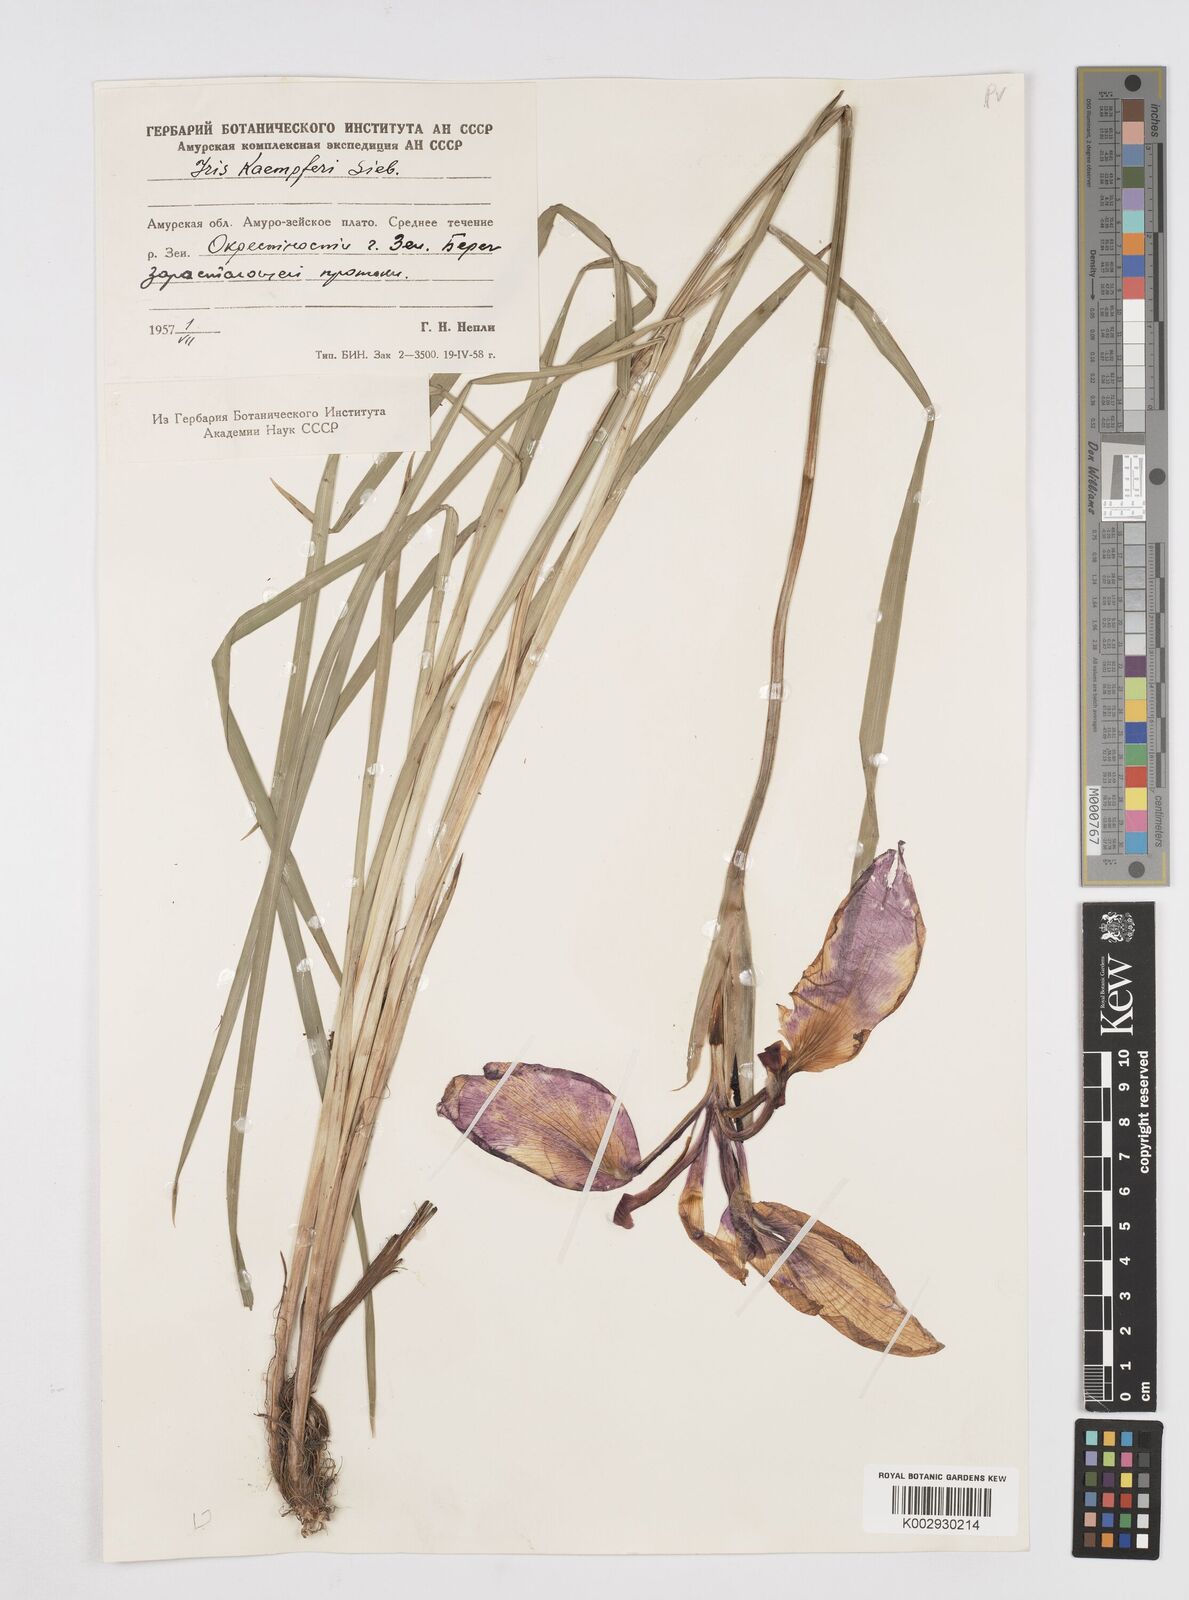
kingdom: Plantae
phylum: Tracheophyta
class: Liliopsida
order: Asparagales
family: Iridaceae
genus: Iris
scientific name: Iris ensata
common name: Beaked iris
